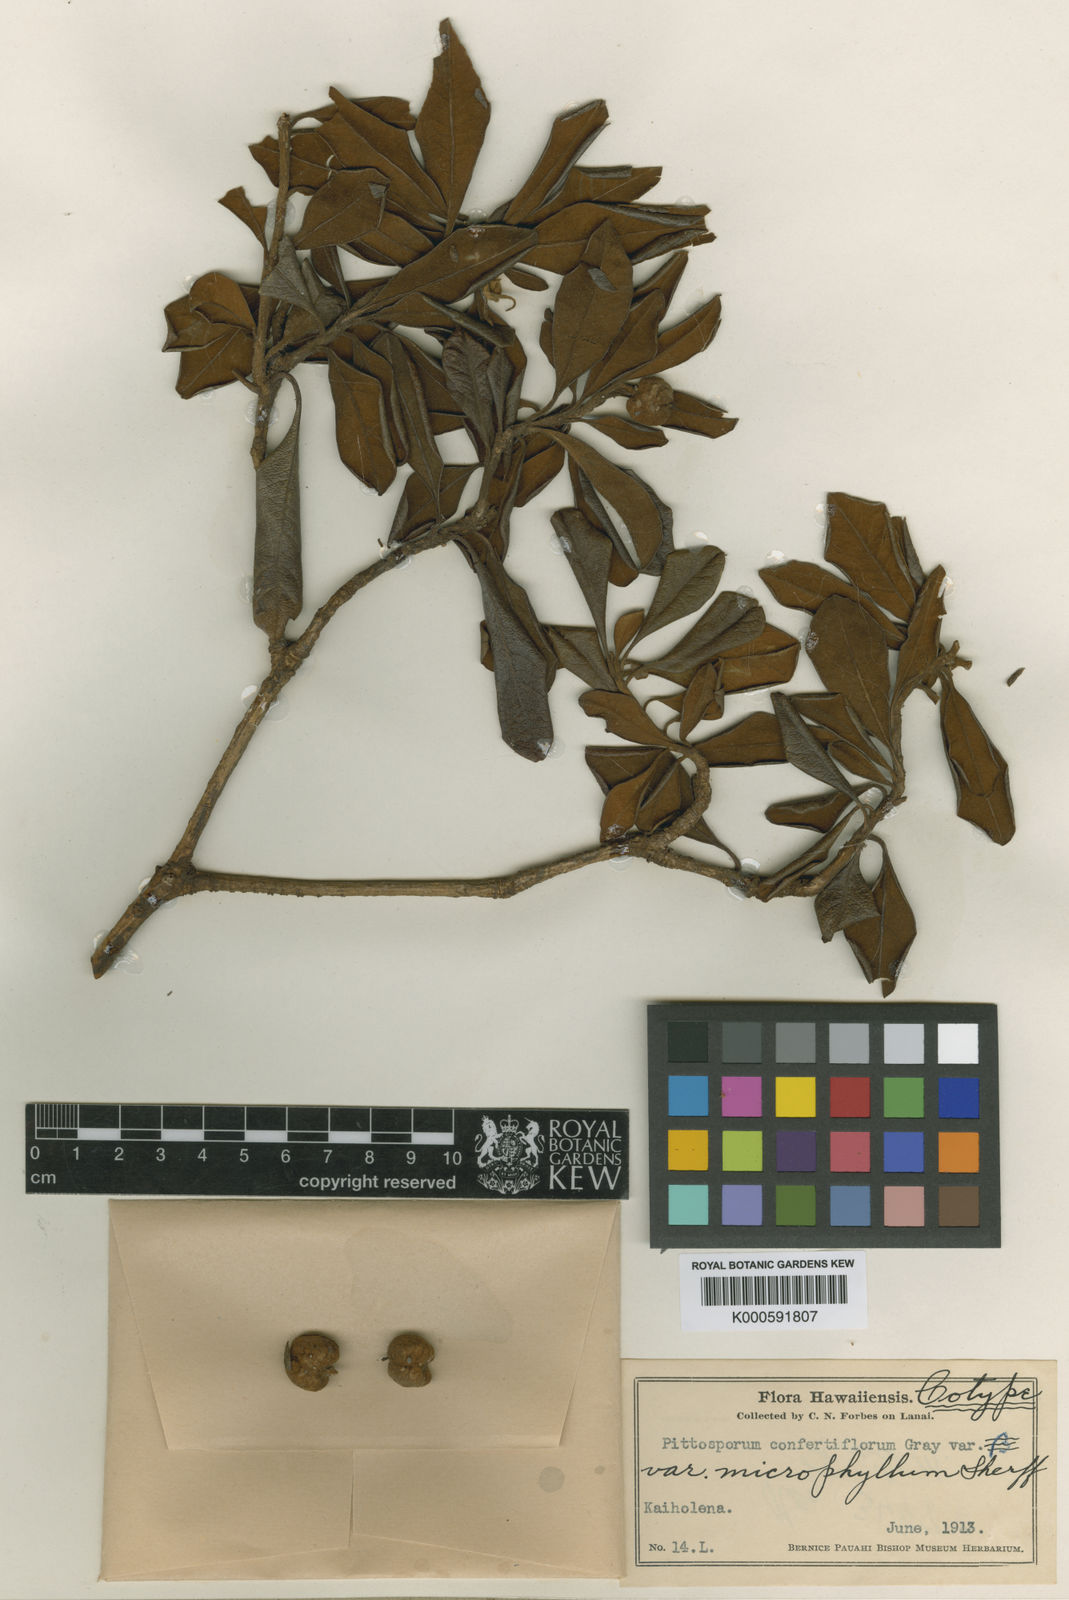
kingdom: Plantae
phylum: Tracheophyta
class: Magnoliopsida
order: Apiales
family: Pittosporaceae
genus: Pittosporum
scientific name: Pittosporum confertiflorum
